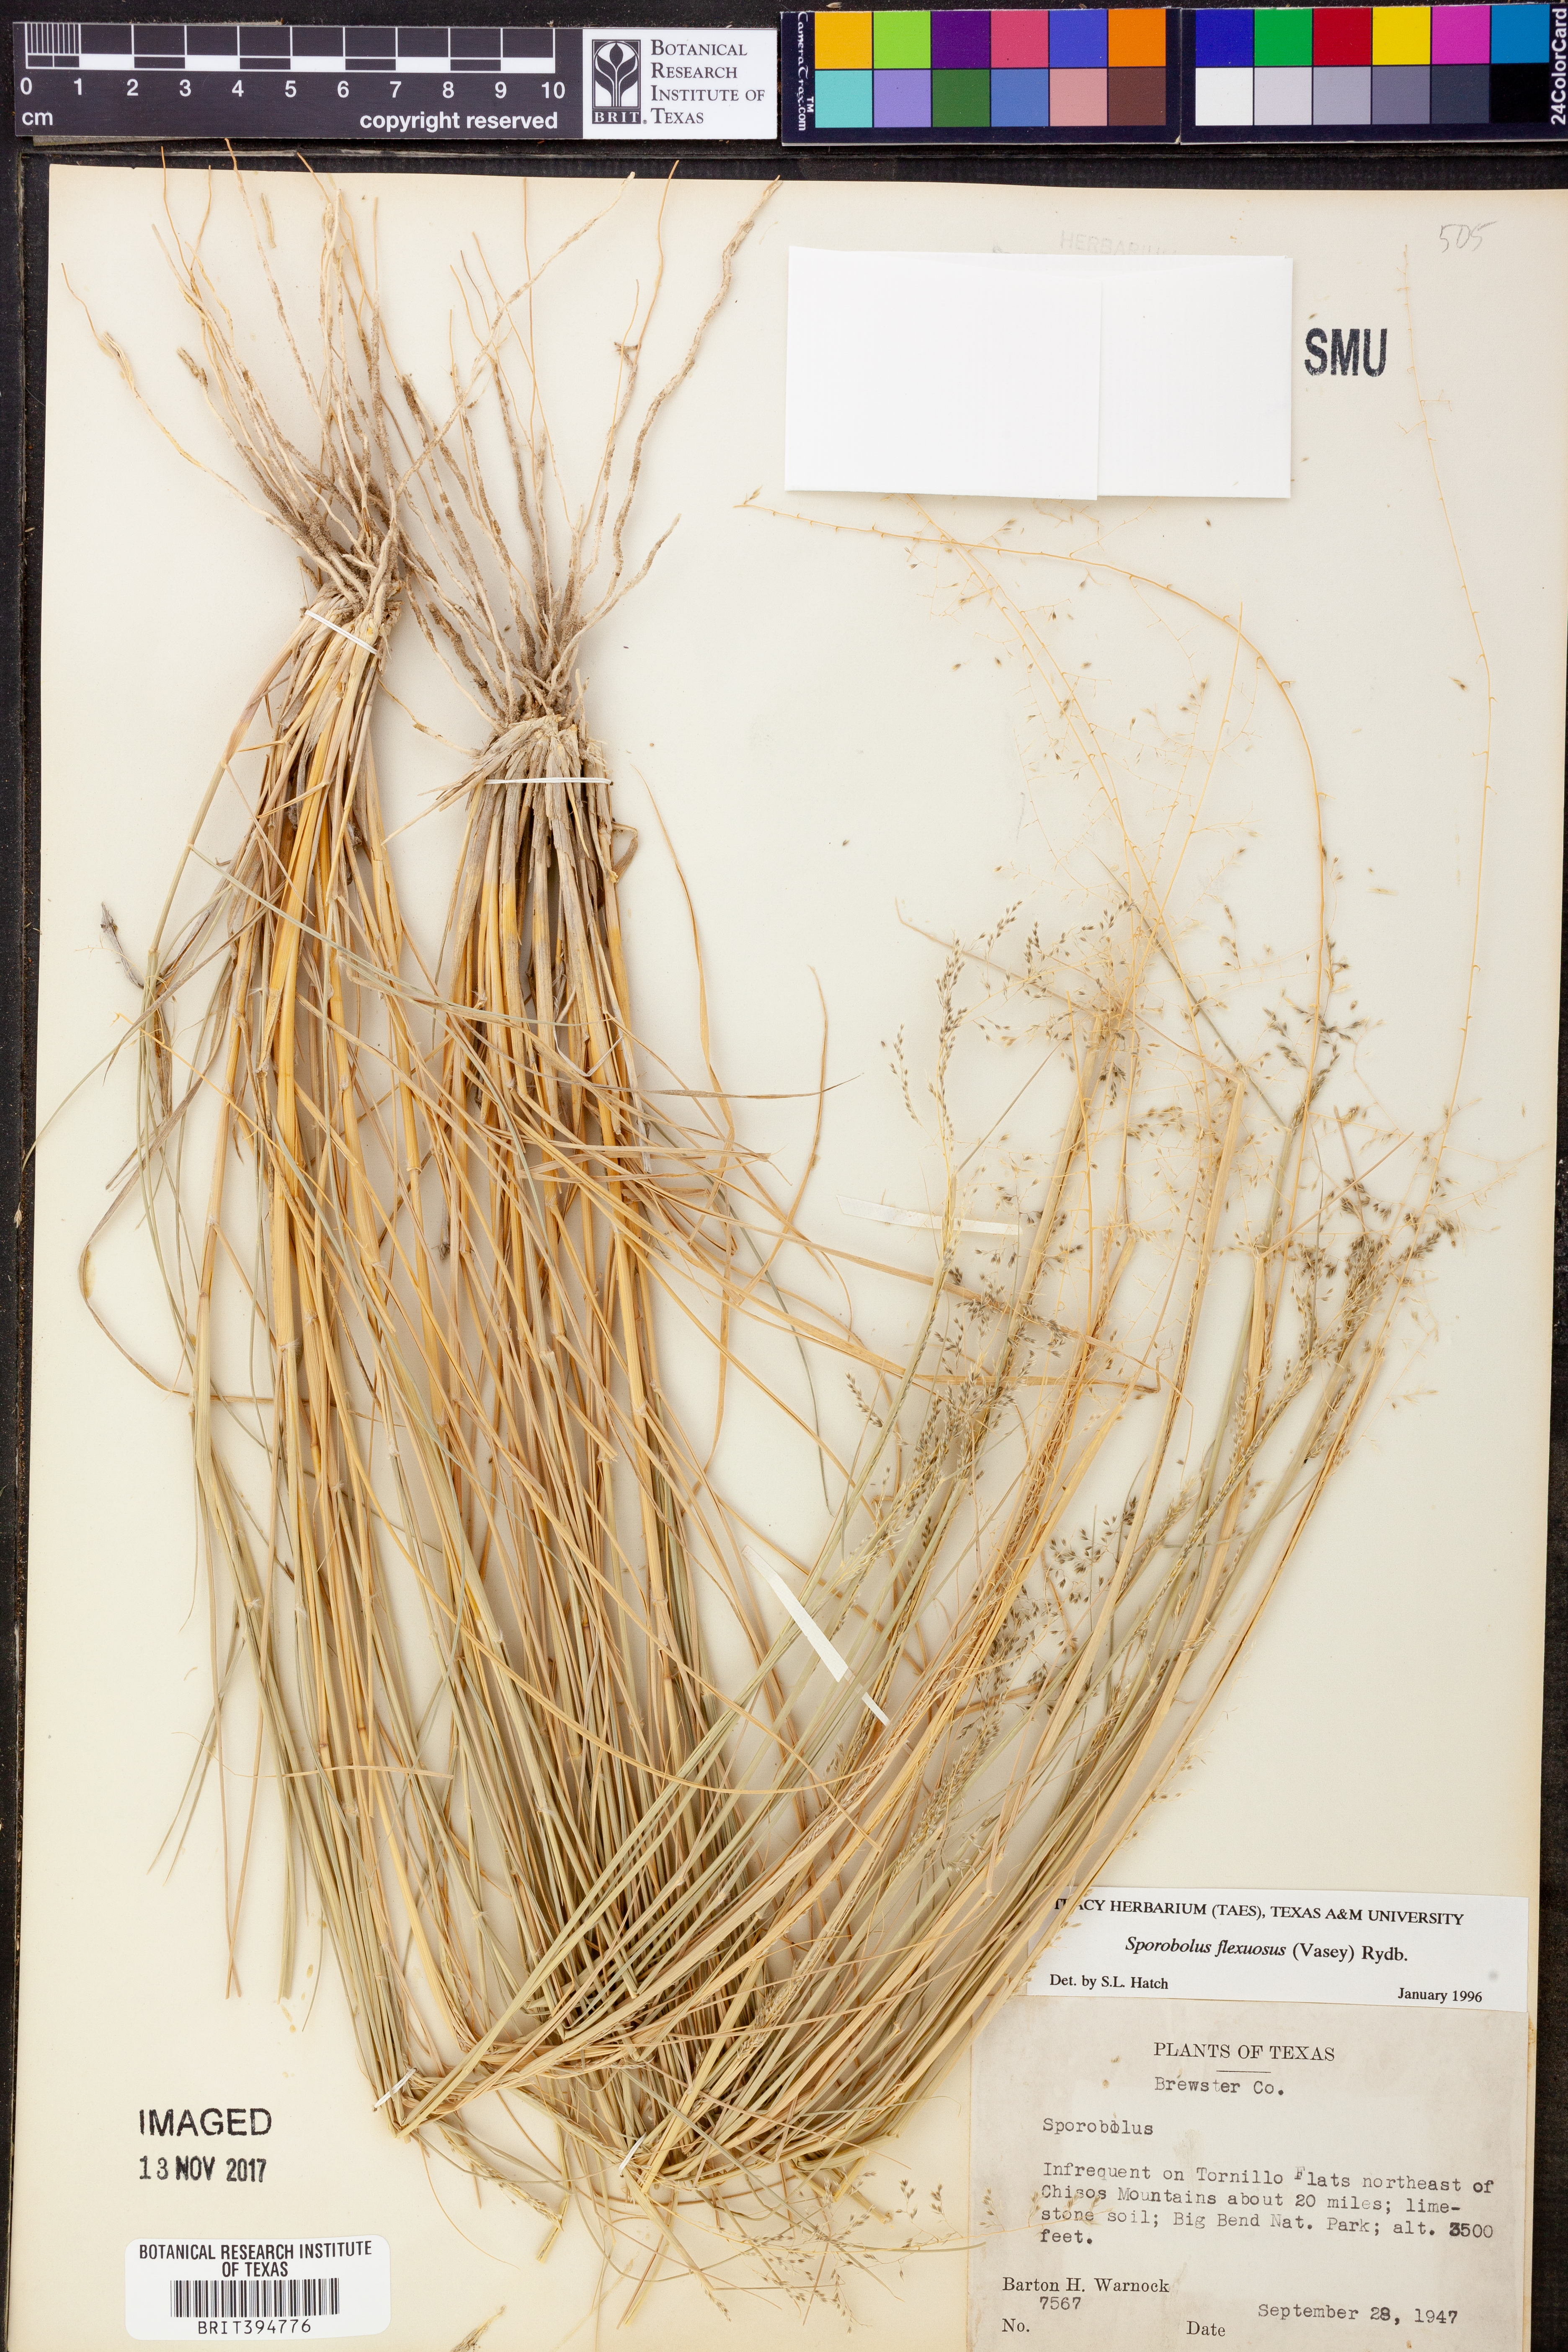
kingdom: Plantae
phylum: Tracheophyta
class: Liliopsida
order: Poales
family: Poaceae
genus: Sporobolus
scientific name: Sporobolus flexuosus
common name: Mesa dropseed
